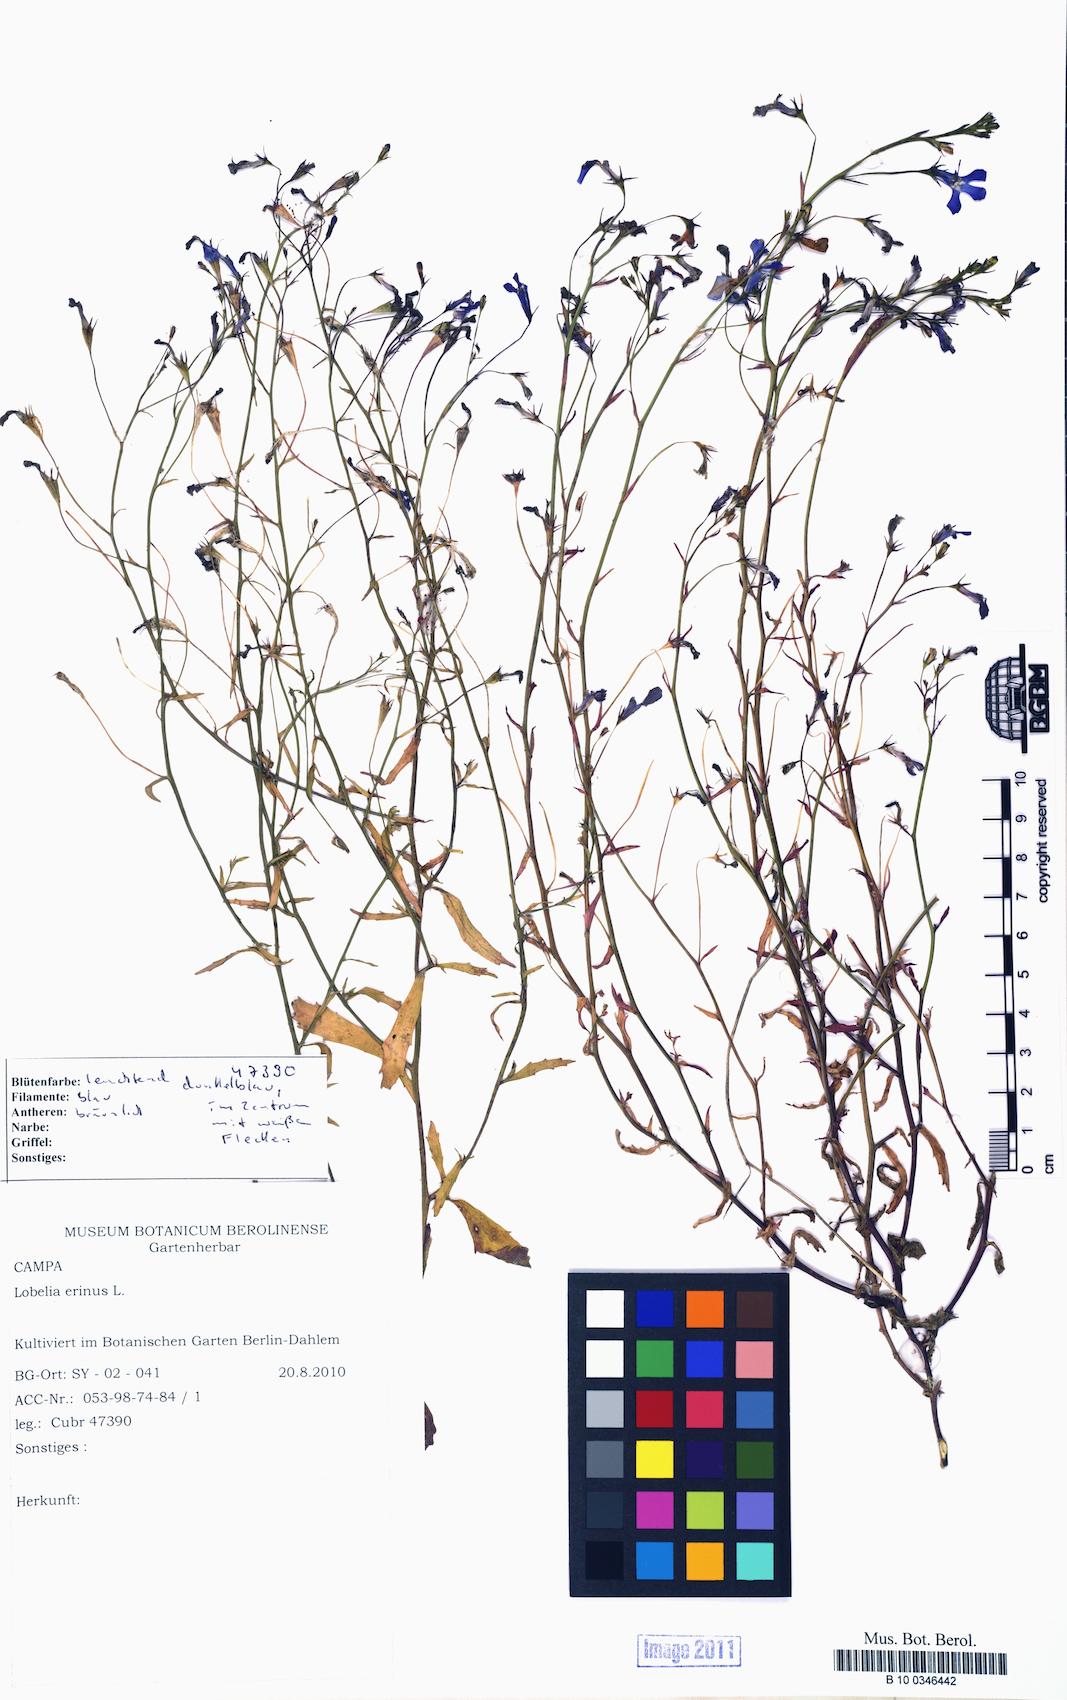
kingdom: Plantae
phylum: Tracheophyta
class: Magnoliopsida
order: Asterales
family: Campanulaceae
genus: Lobelia
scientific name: Lobelia erinus
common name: Edging lobelia
